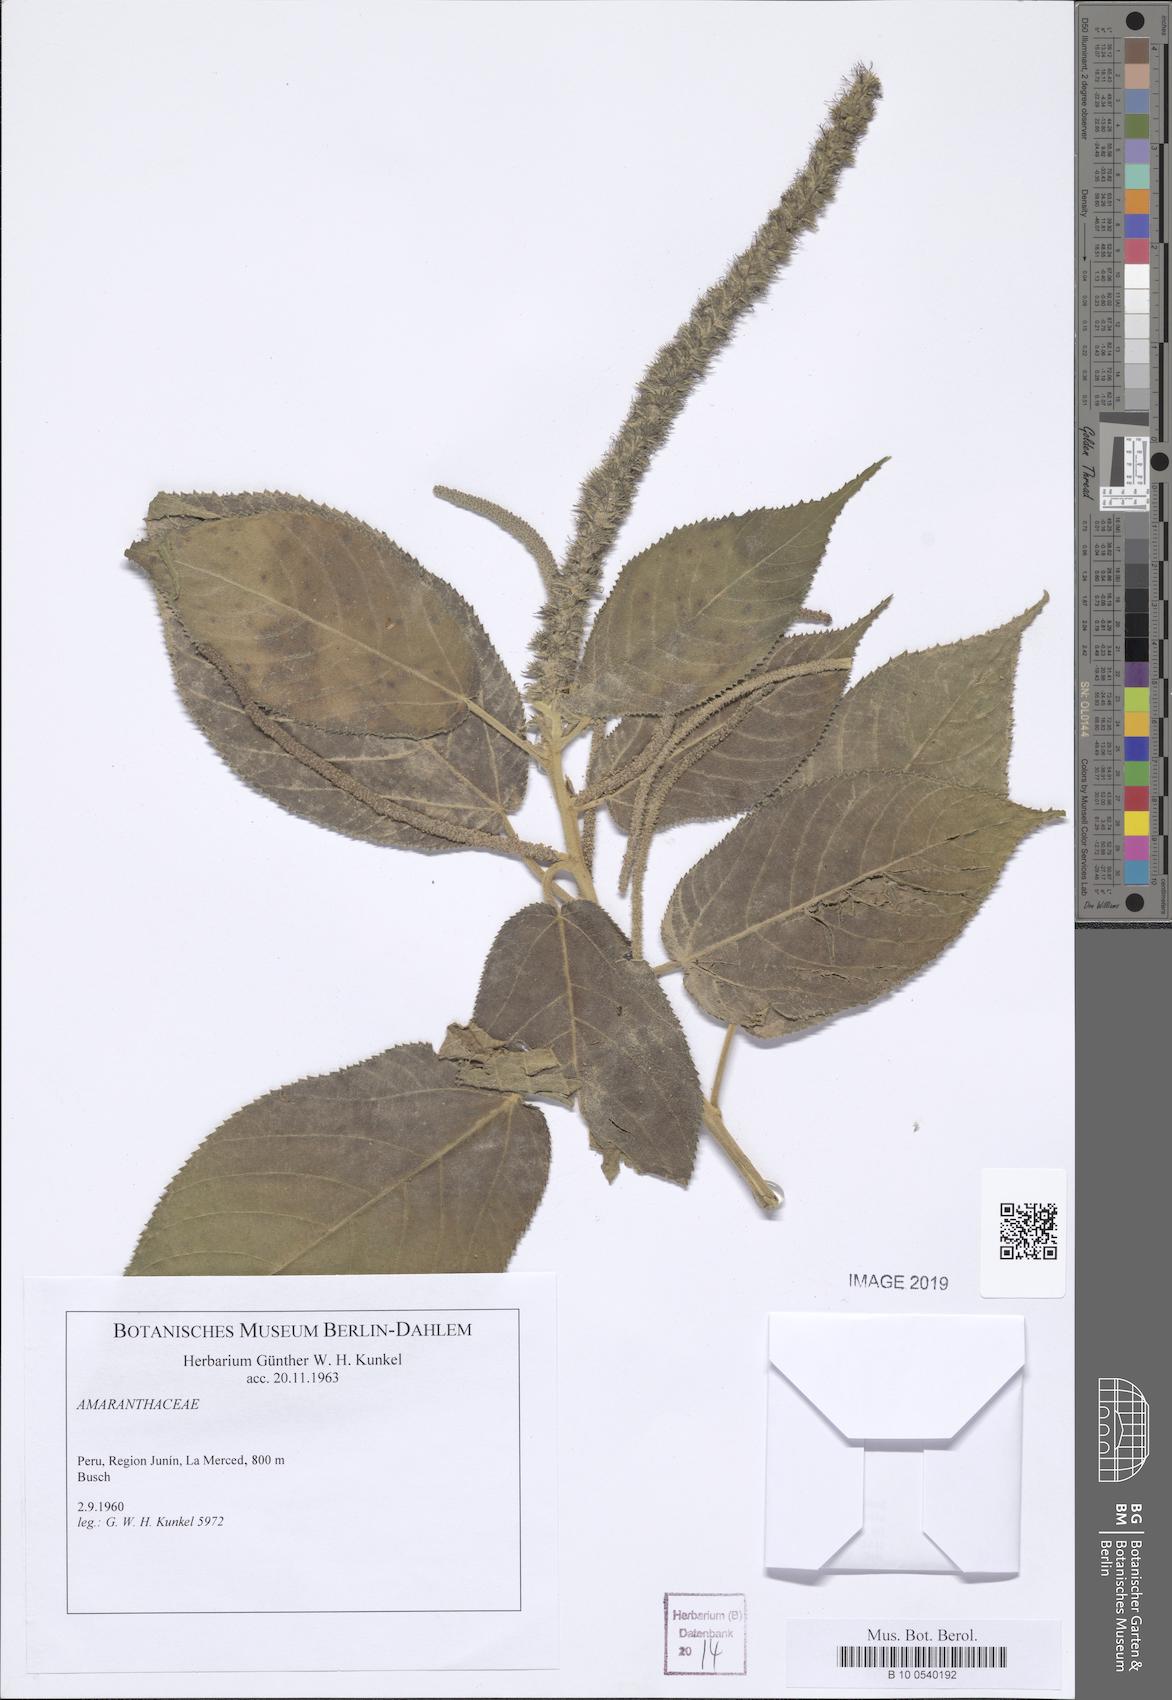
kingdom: Plantae
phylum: Tracheophyta
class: Magnoliopsida
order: Caryophyllales
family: Amaranthaceae
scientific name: Amaranthaceae
